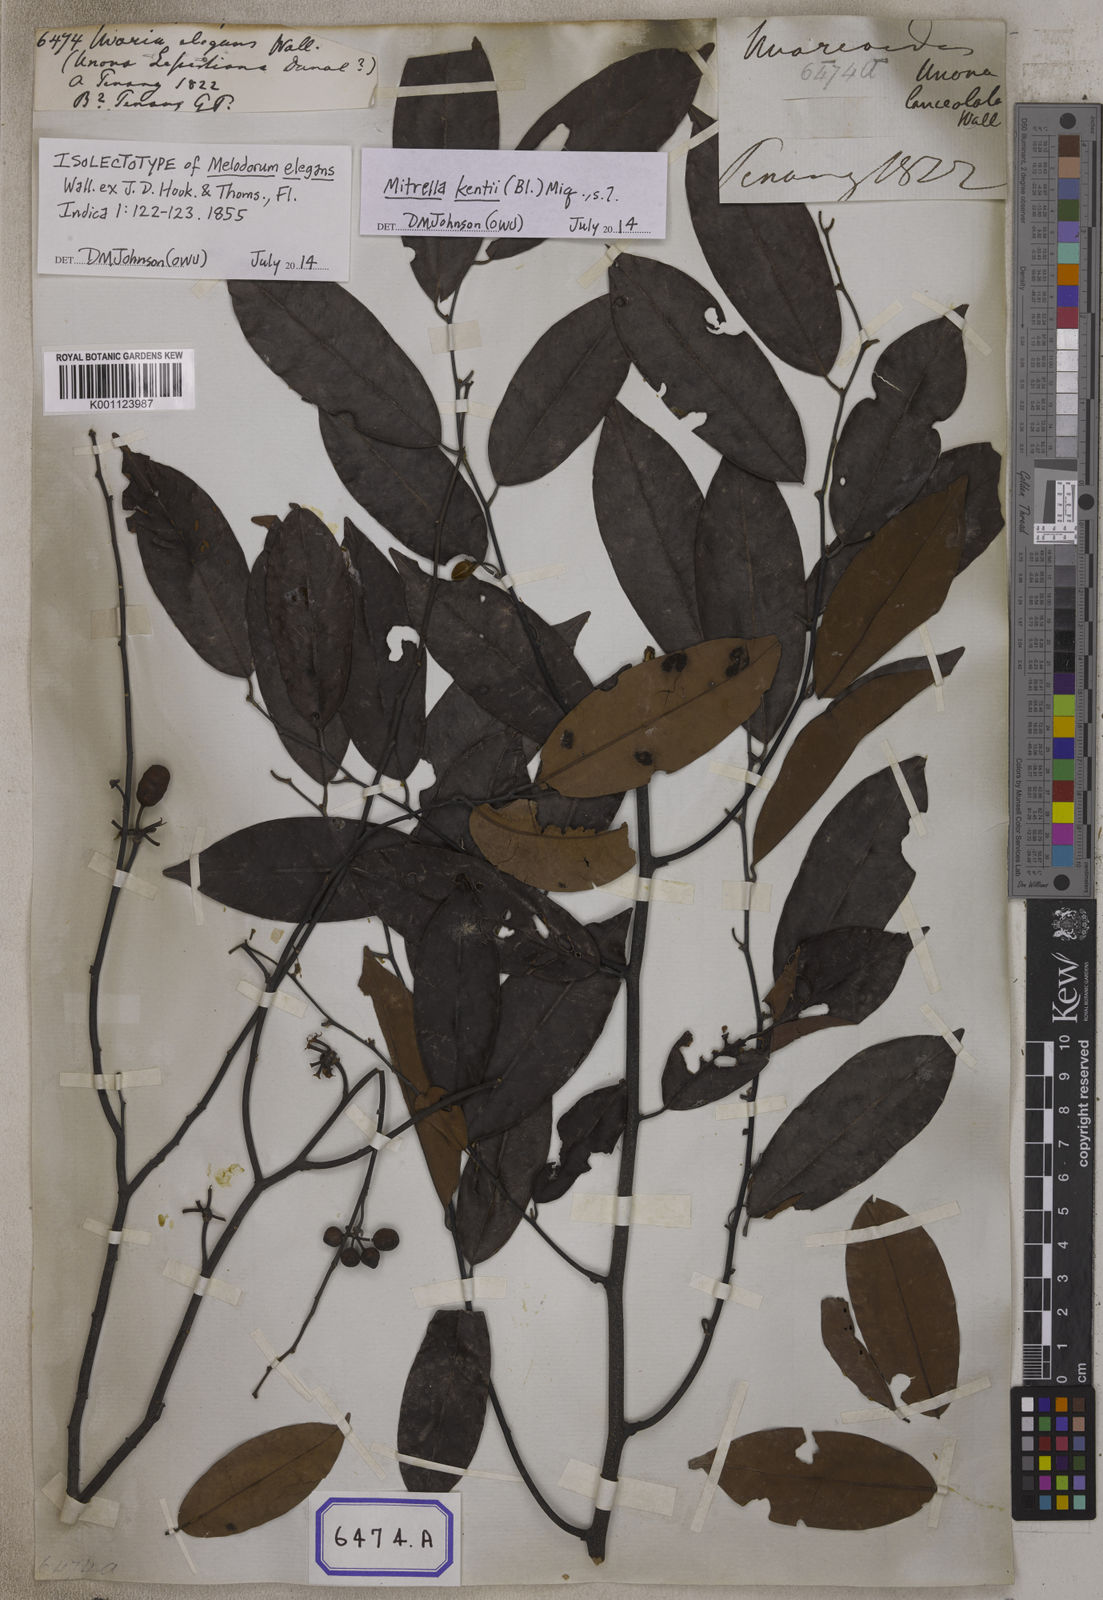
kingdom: Plantae
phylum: Tracheophyta
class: Magnoliopsida
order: Magnoliales
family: Annonaceae
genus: Mitrella
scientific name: Mitrella kentii
